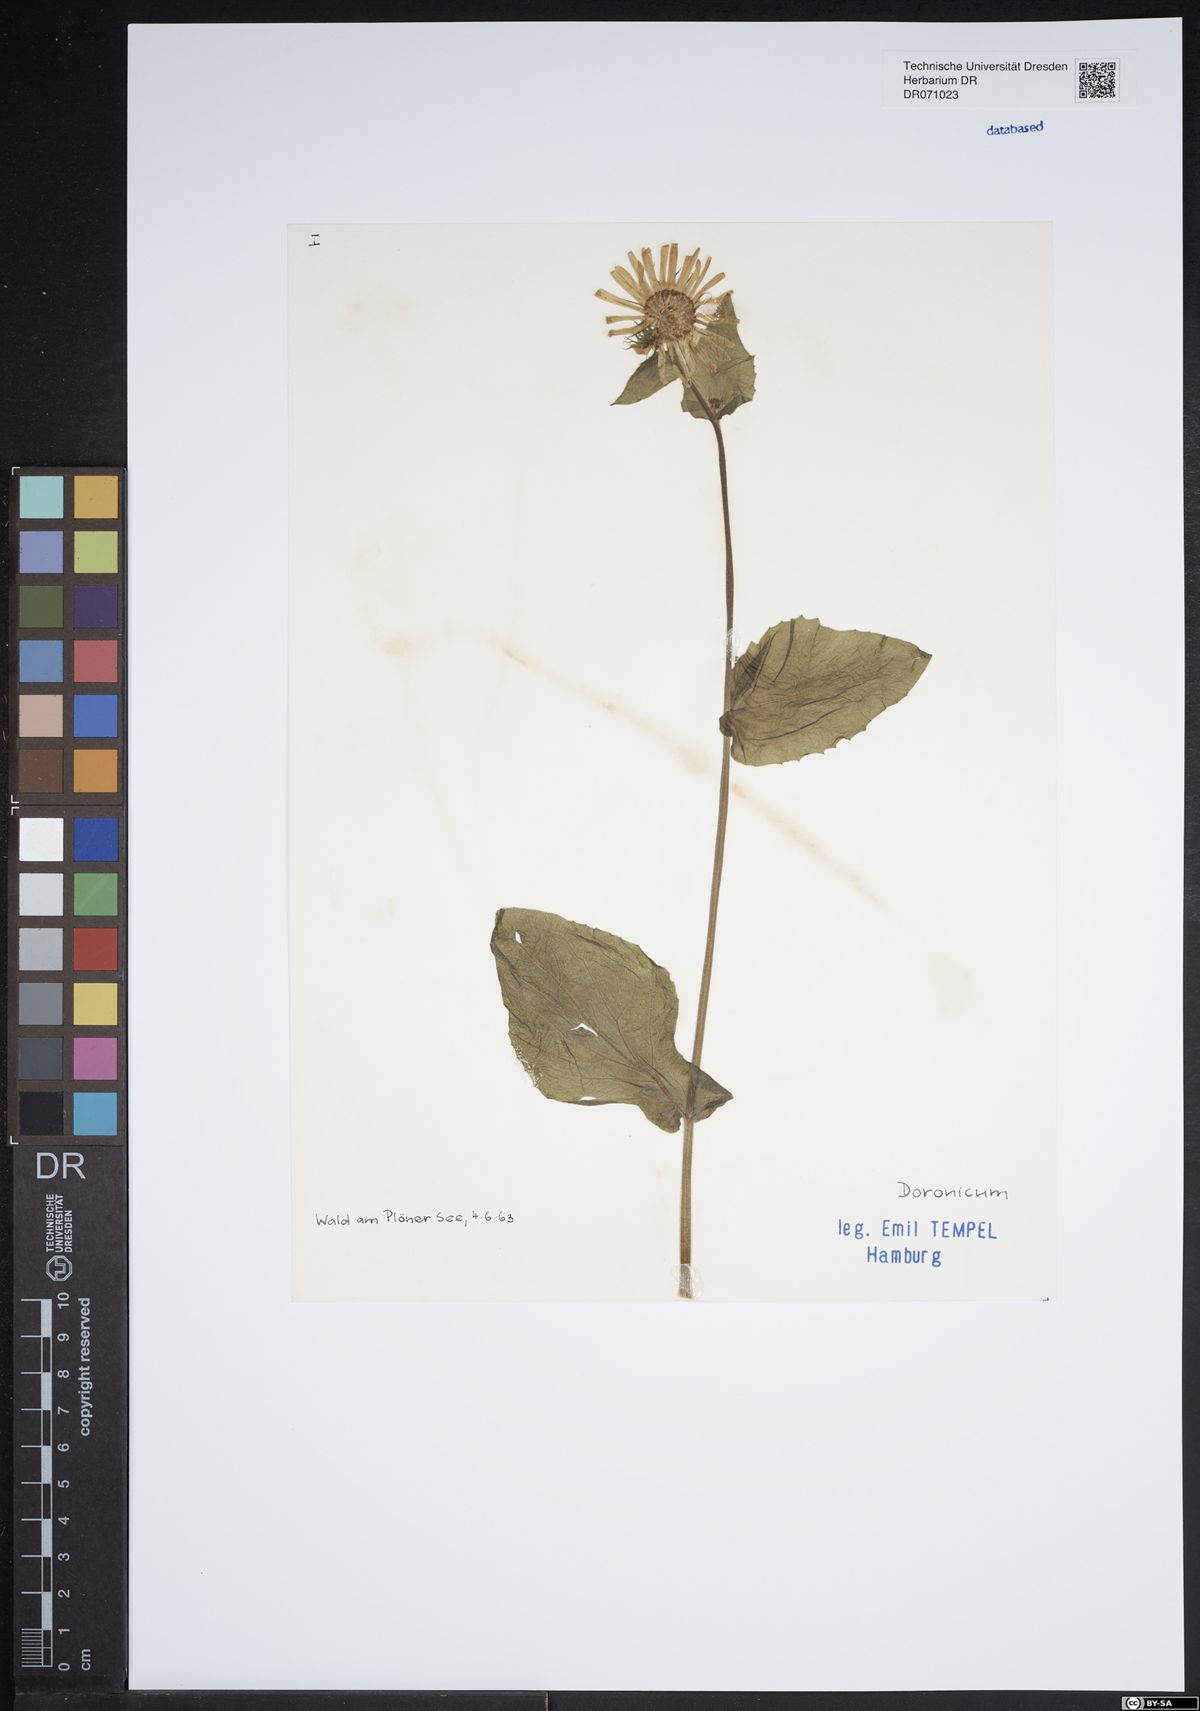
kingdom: Plantae
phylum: Tracheophyta
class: Magnoliopsida
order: Asterales
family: Asteraceae
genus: Doronicum
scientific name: Doronicum
